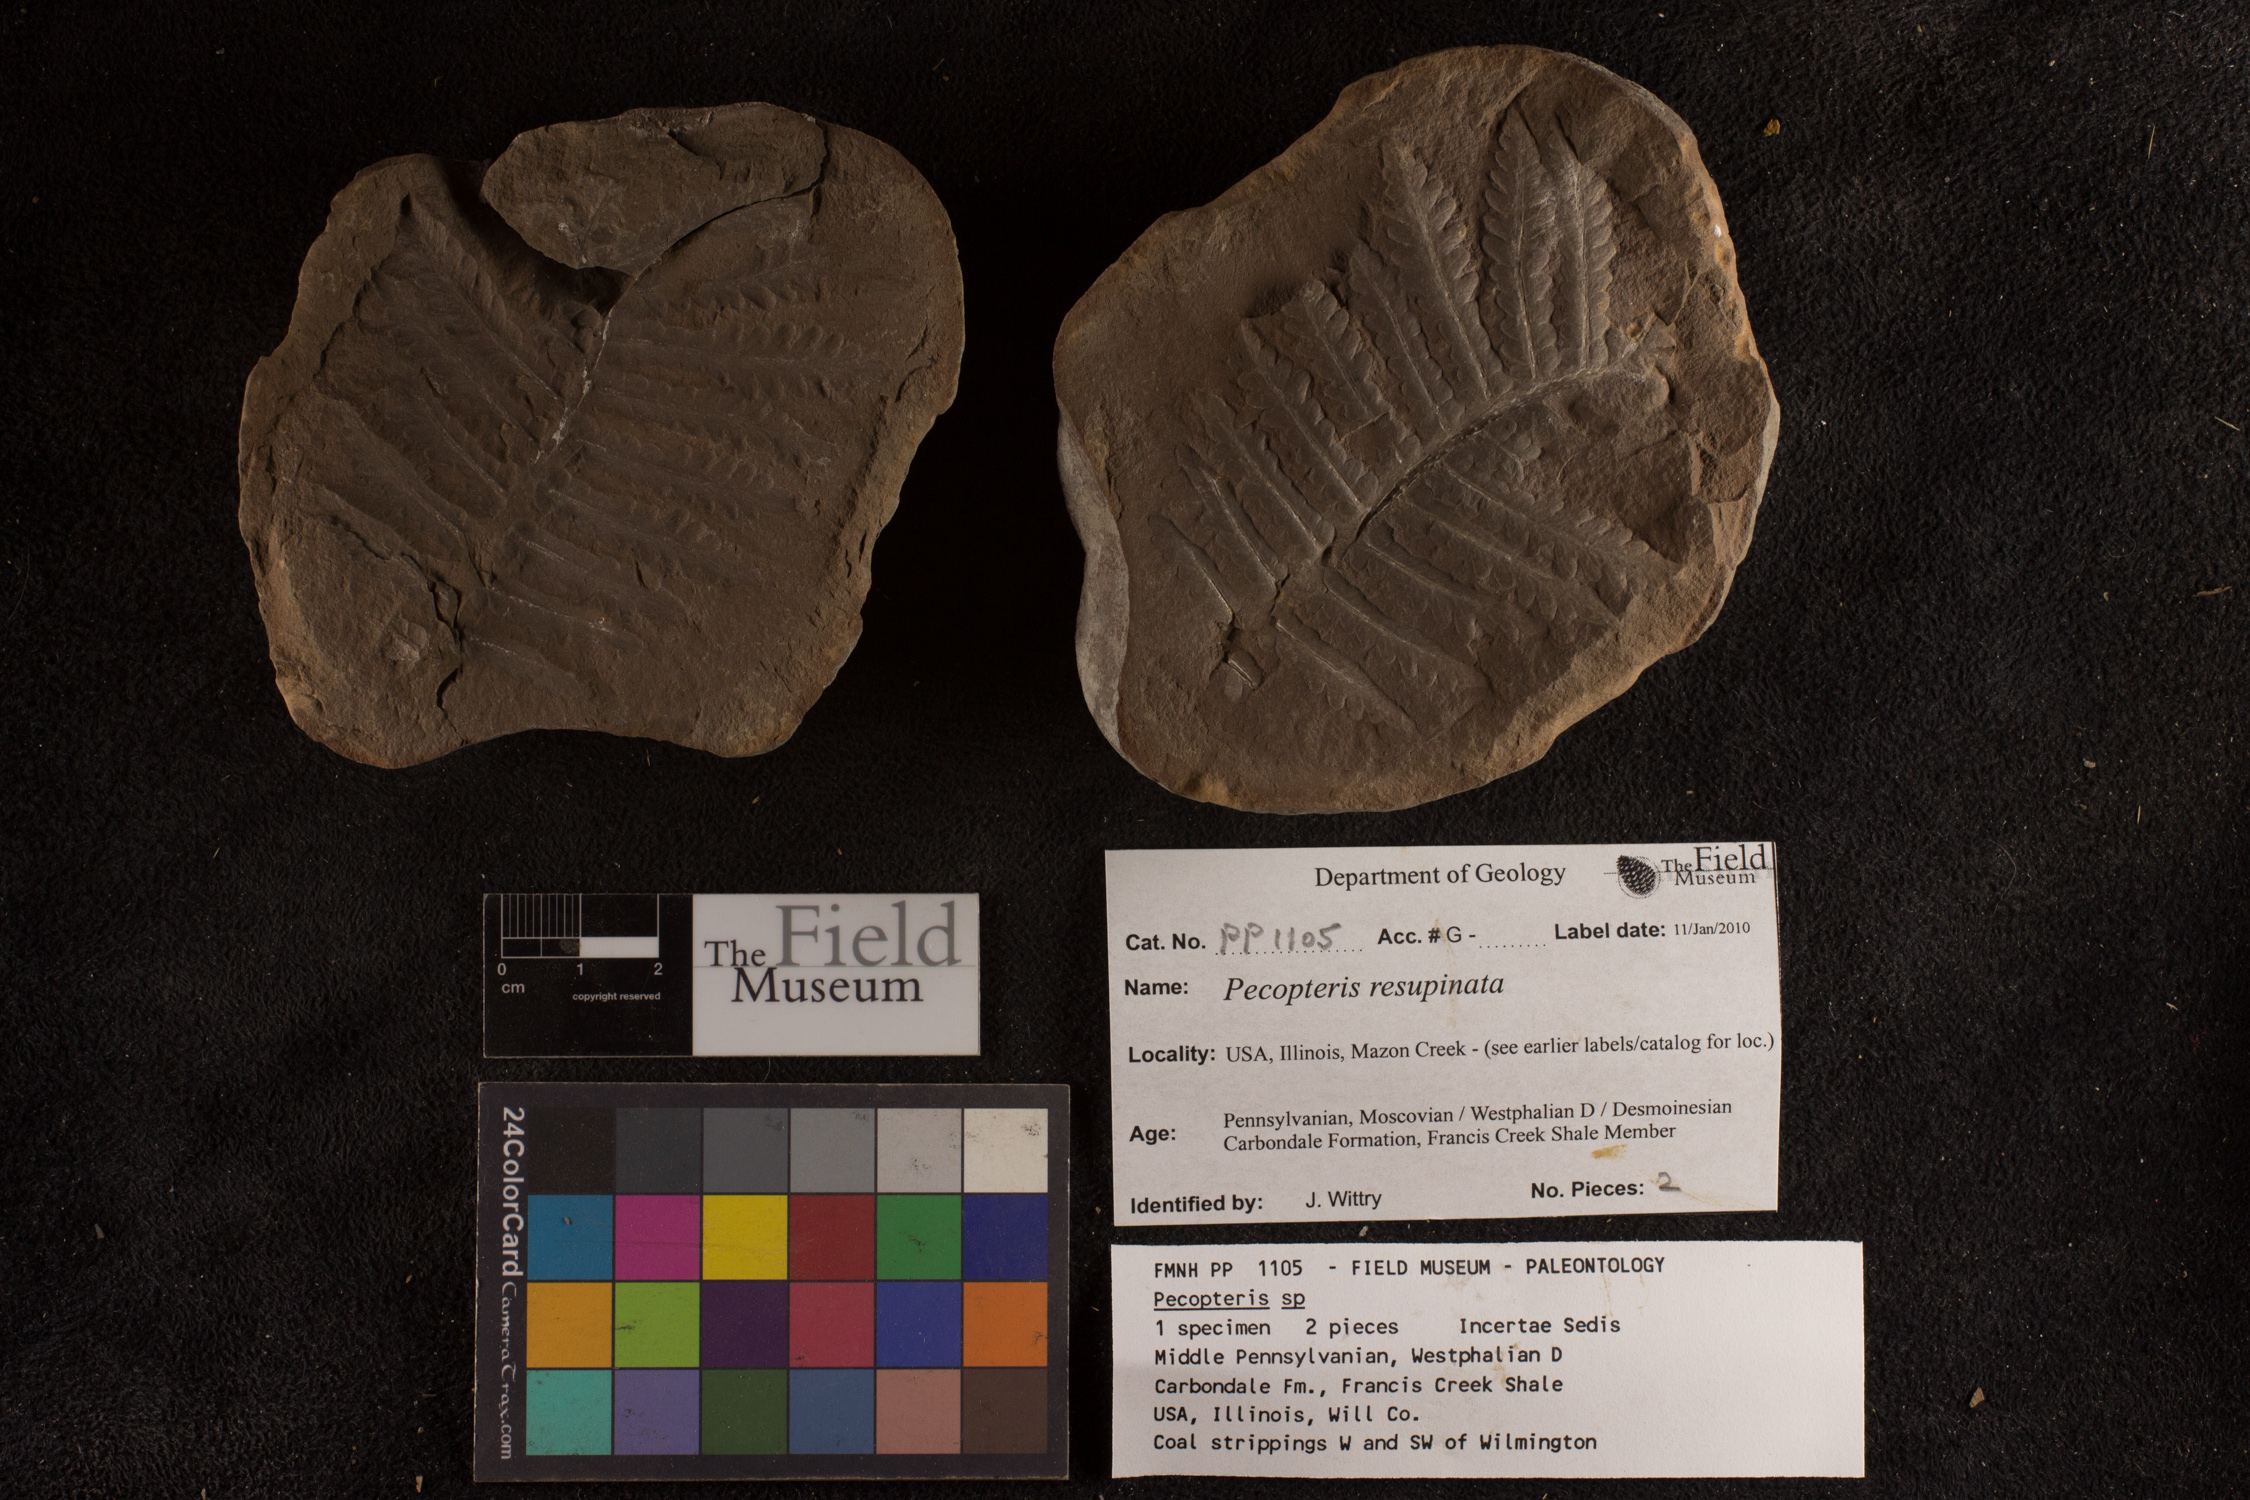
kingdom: Plantae
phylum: Tracheophyta
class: Polypodiopsida
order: Marattiales
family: Asterothecaceae
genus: Pecopteris
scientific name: Pecopteris
